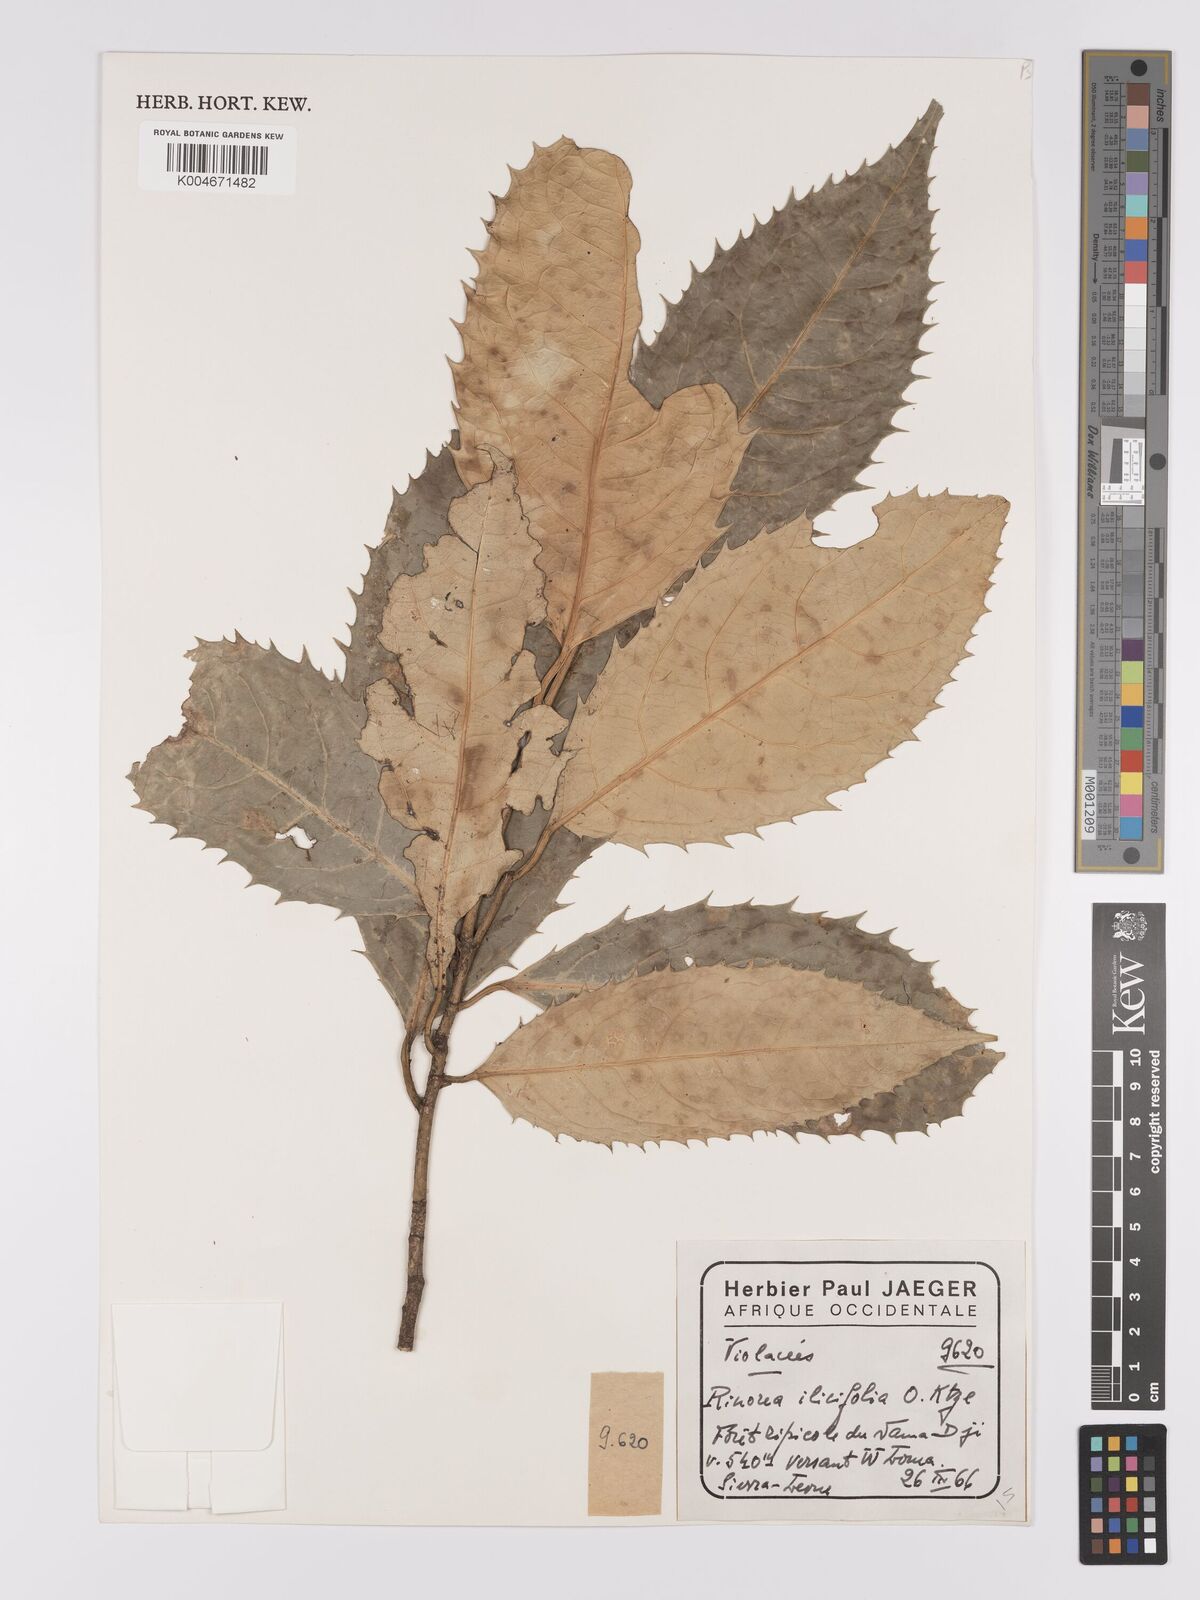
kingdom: Plantae
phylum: Tracheophyta
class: Magnoliopsida
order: Malpighiales
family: Violaceae
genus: Rinorea
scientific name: Rinorea ilicifolia
